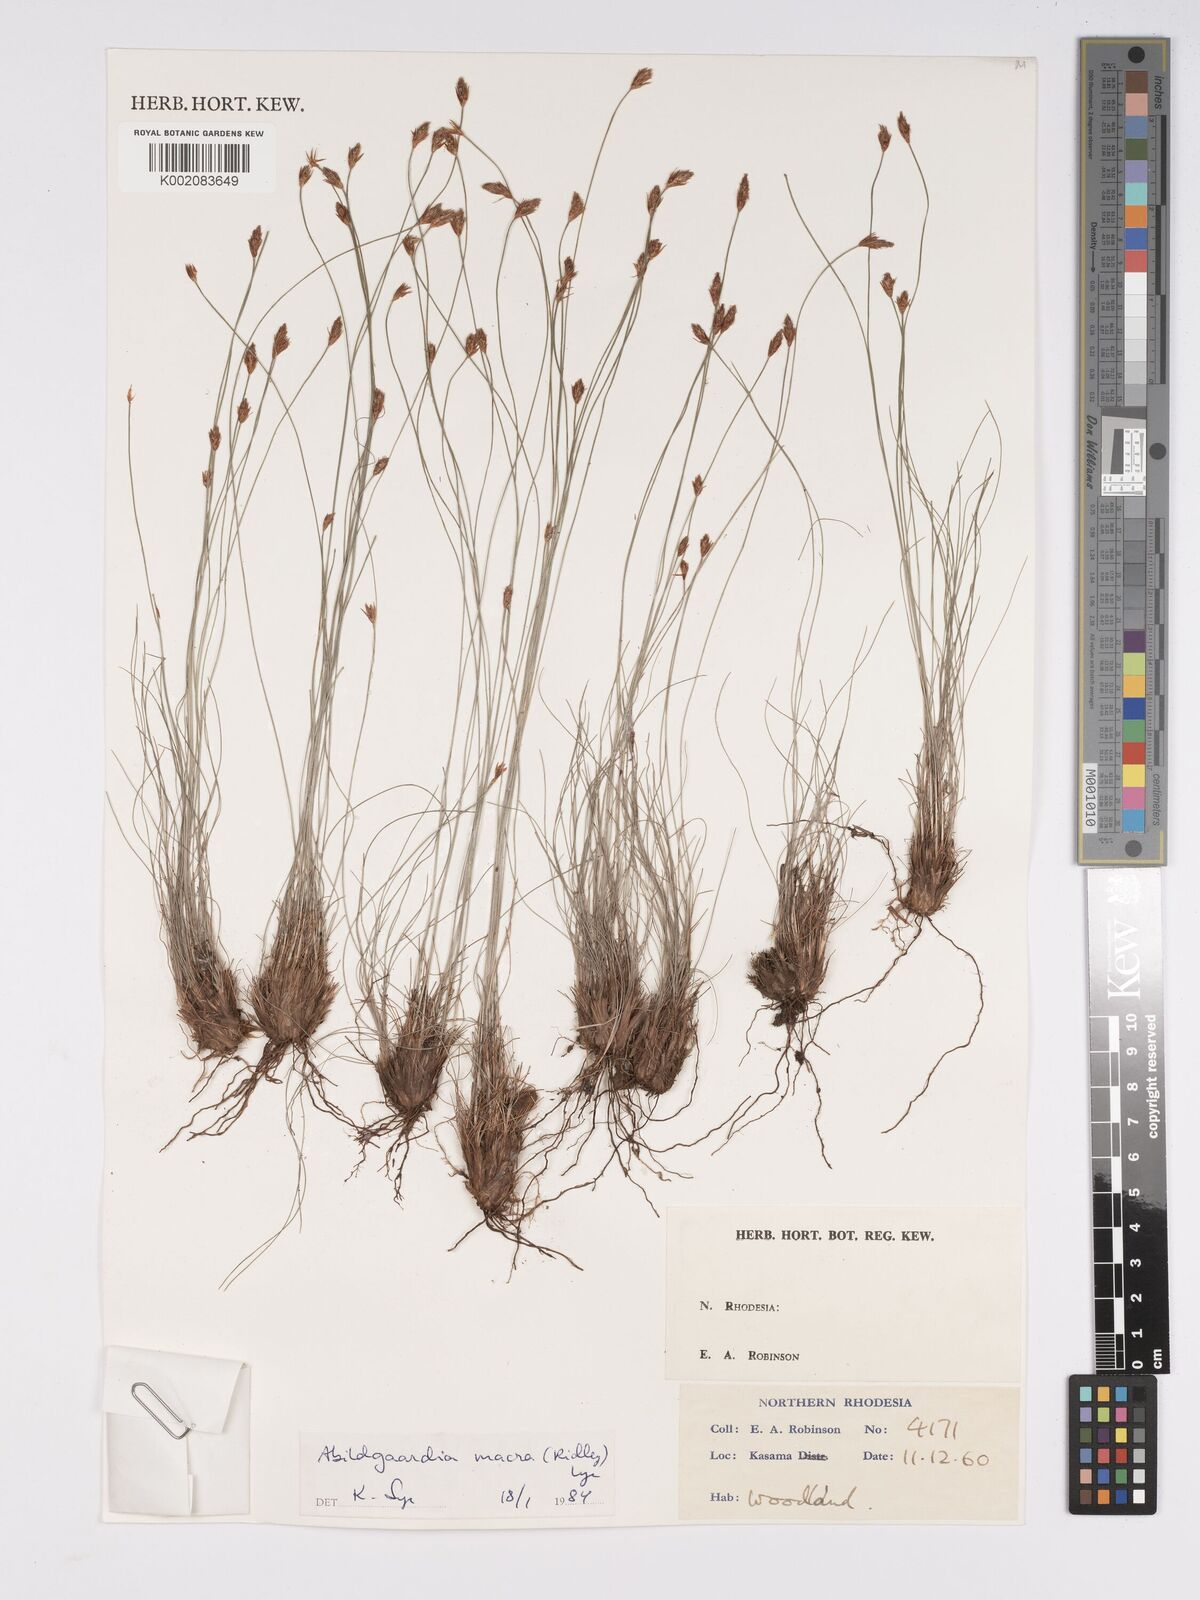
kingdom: Plantae
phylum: Tracheophyta
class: Liliopsida
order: Poales
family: Cyperaceae
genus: Bulbostylis
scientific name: Bulbostylis macra
